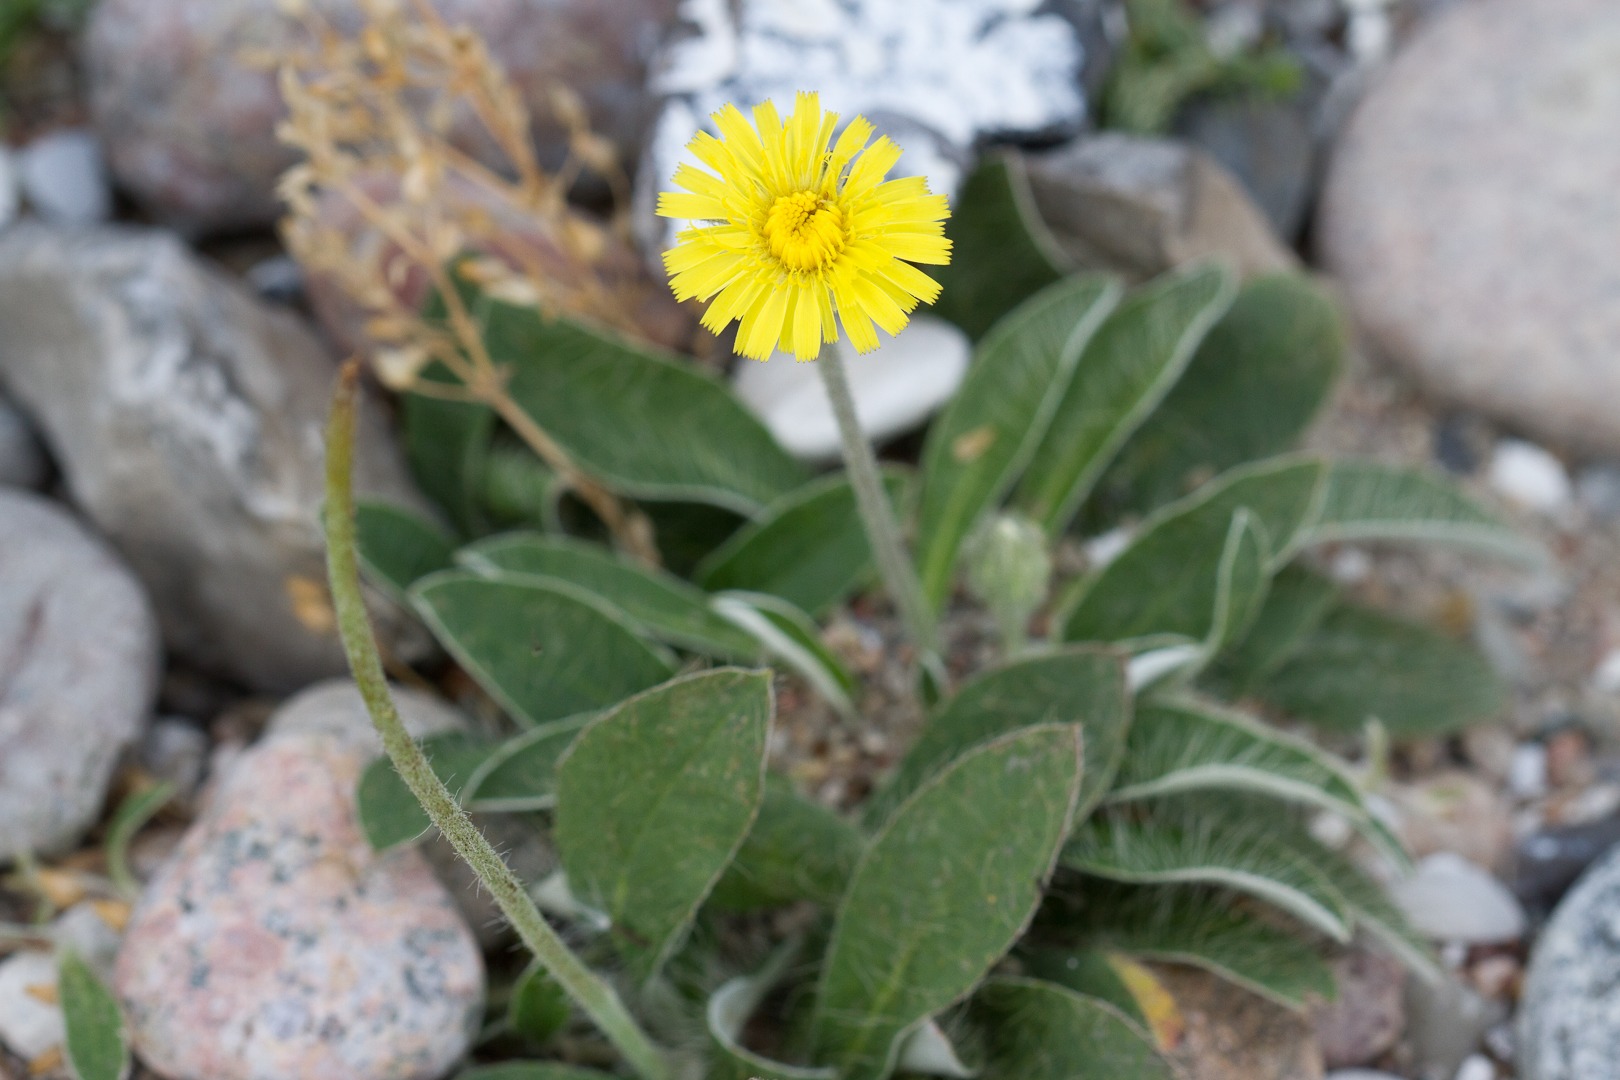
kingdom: Plantae
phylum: Tracheophyta
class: Magnoliopsida
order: Asterales
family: Asteraceae
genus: Pilosella
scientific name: Pilosella officinarum
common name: Håret høgeurt
